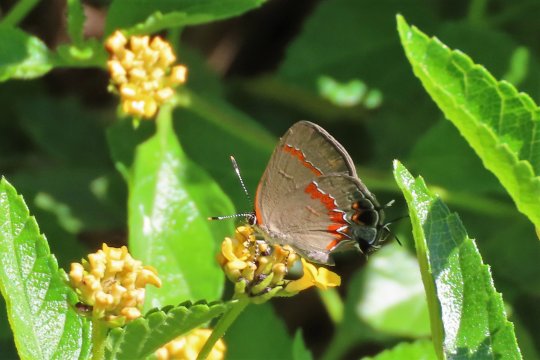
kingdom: Animalia
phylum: Arthropoda
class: Insecta
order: Lepidoptera
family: Lycaenidae
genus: Calycopis
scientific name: Calycopis cecrops
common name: Red-banded Hairstreak
